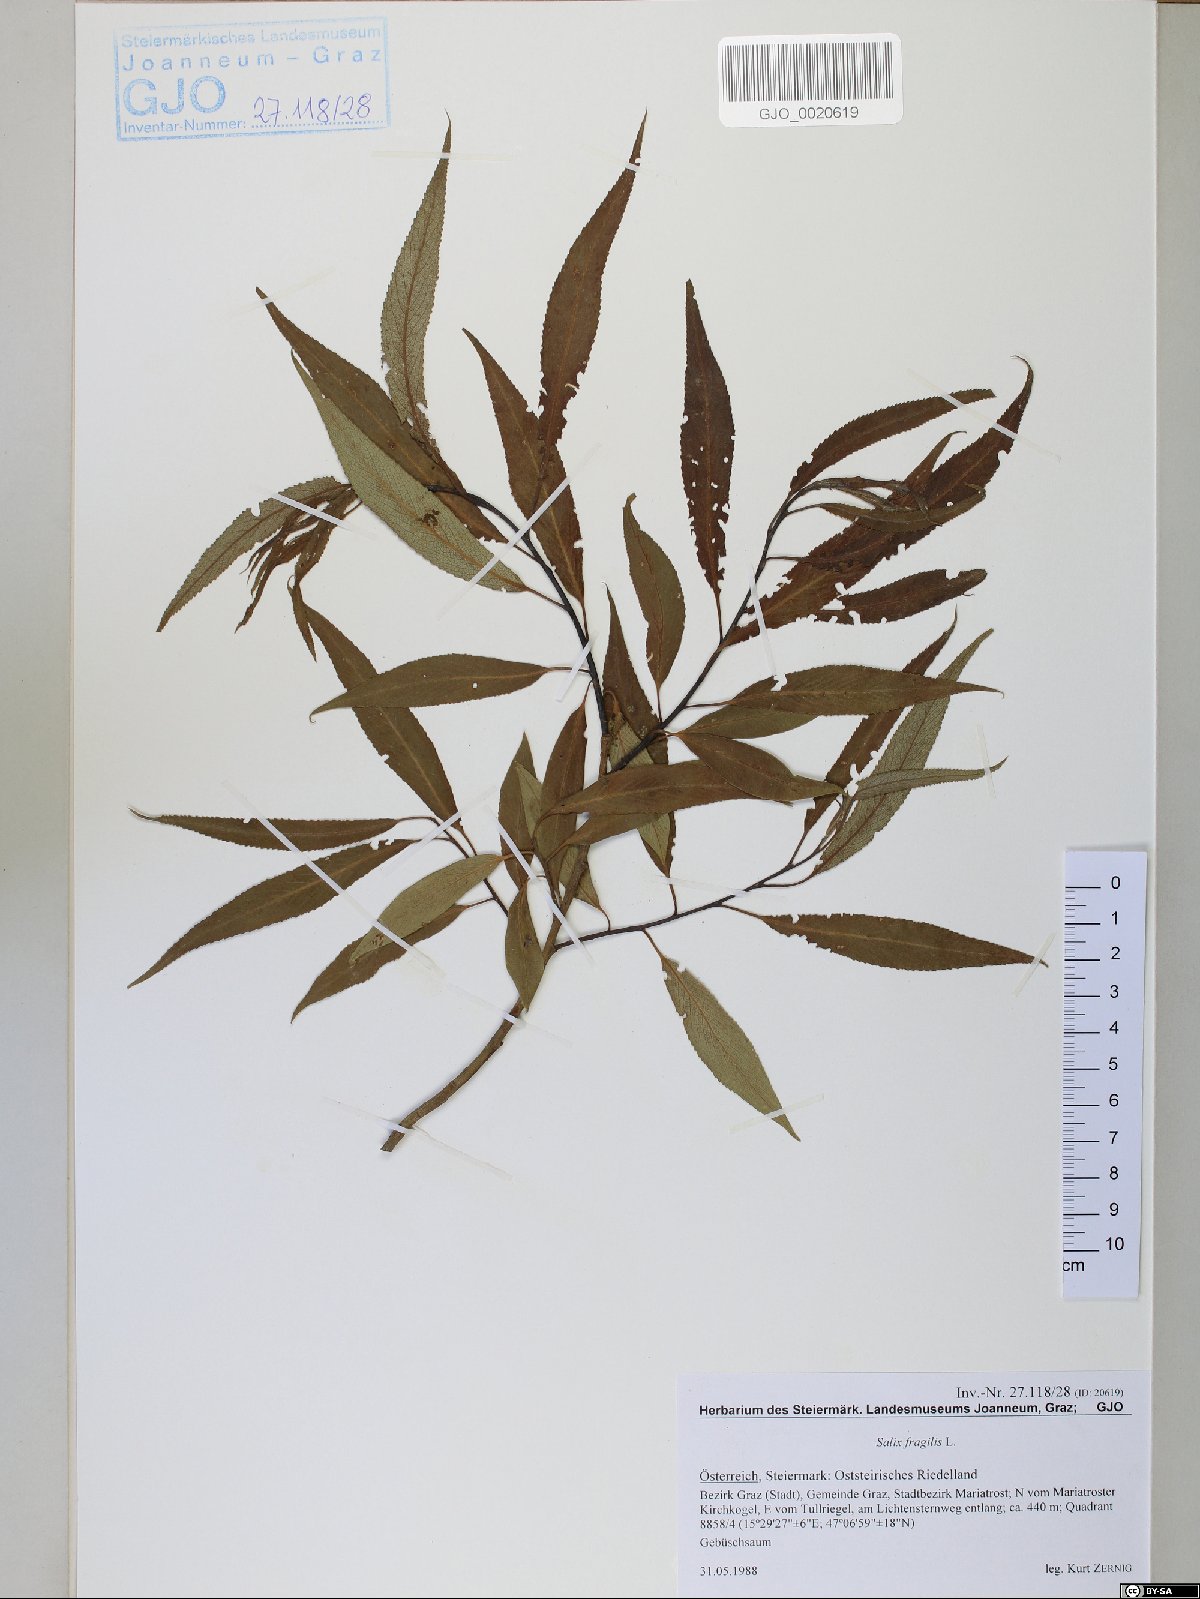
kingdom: Plantae
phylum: Tracheophyta
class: Magnoliopsida
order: Malpighiales
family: Salicaceae
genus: Salix
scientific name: Salix fragilis
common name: Crack willow
